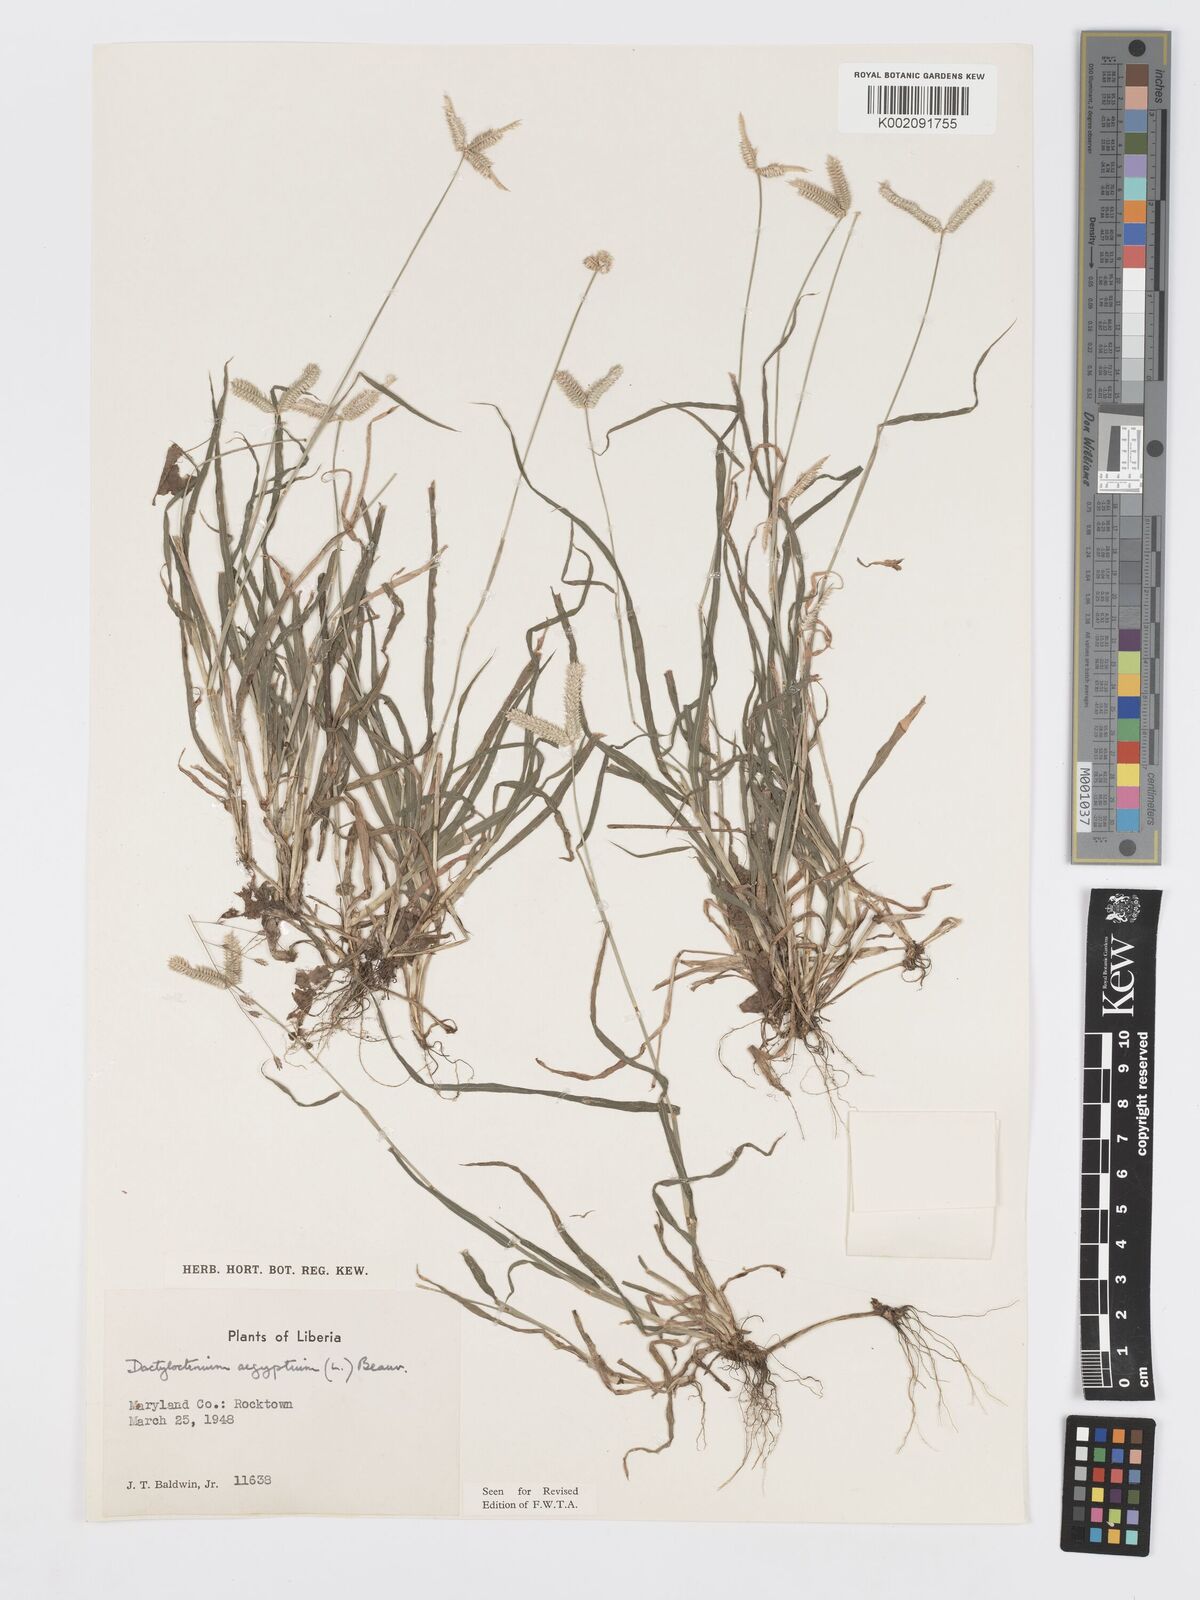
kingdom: Plantae
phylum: Tracheophyta
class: Liliopsida
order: Poales
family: Poaceae
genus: Dactyloctenium
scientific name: Dactyloctenium aegyptium
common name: Egyptian grass
